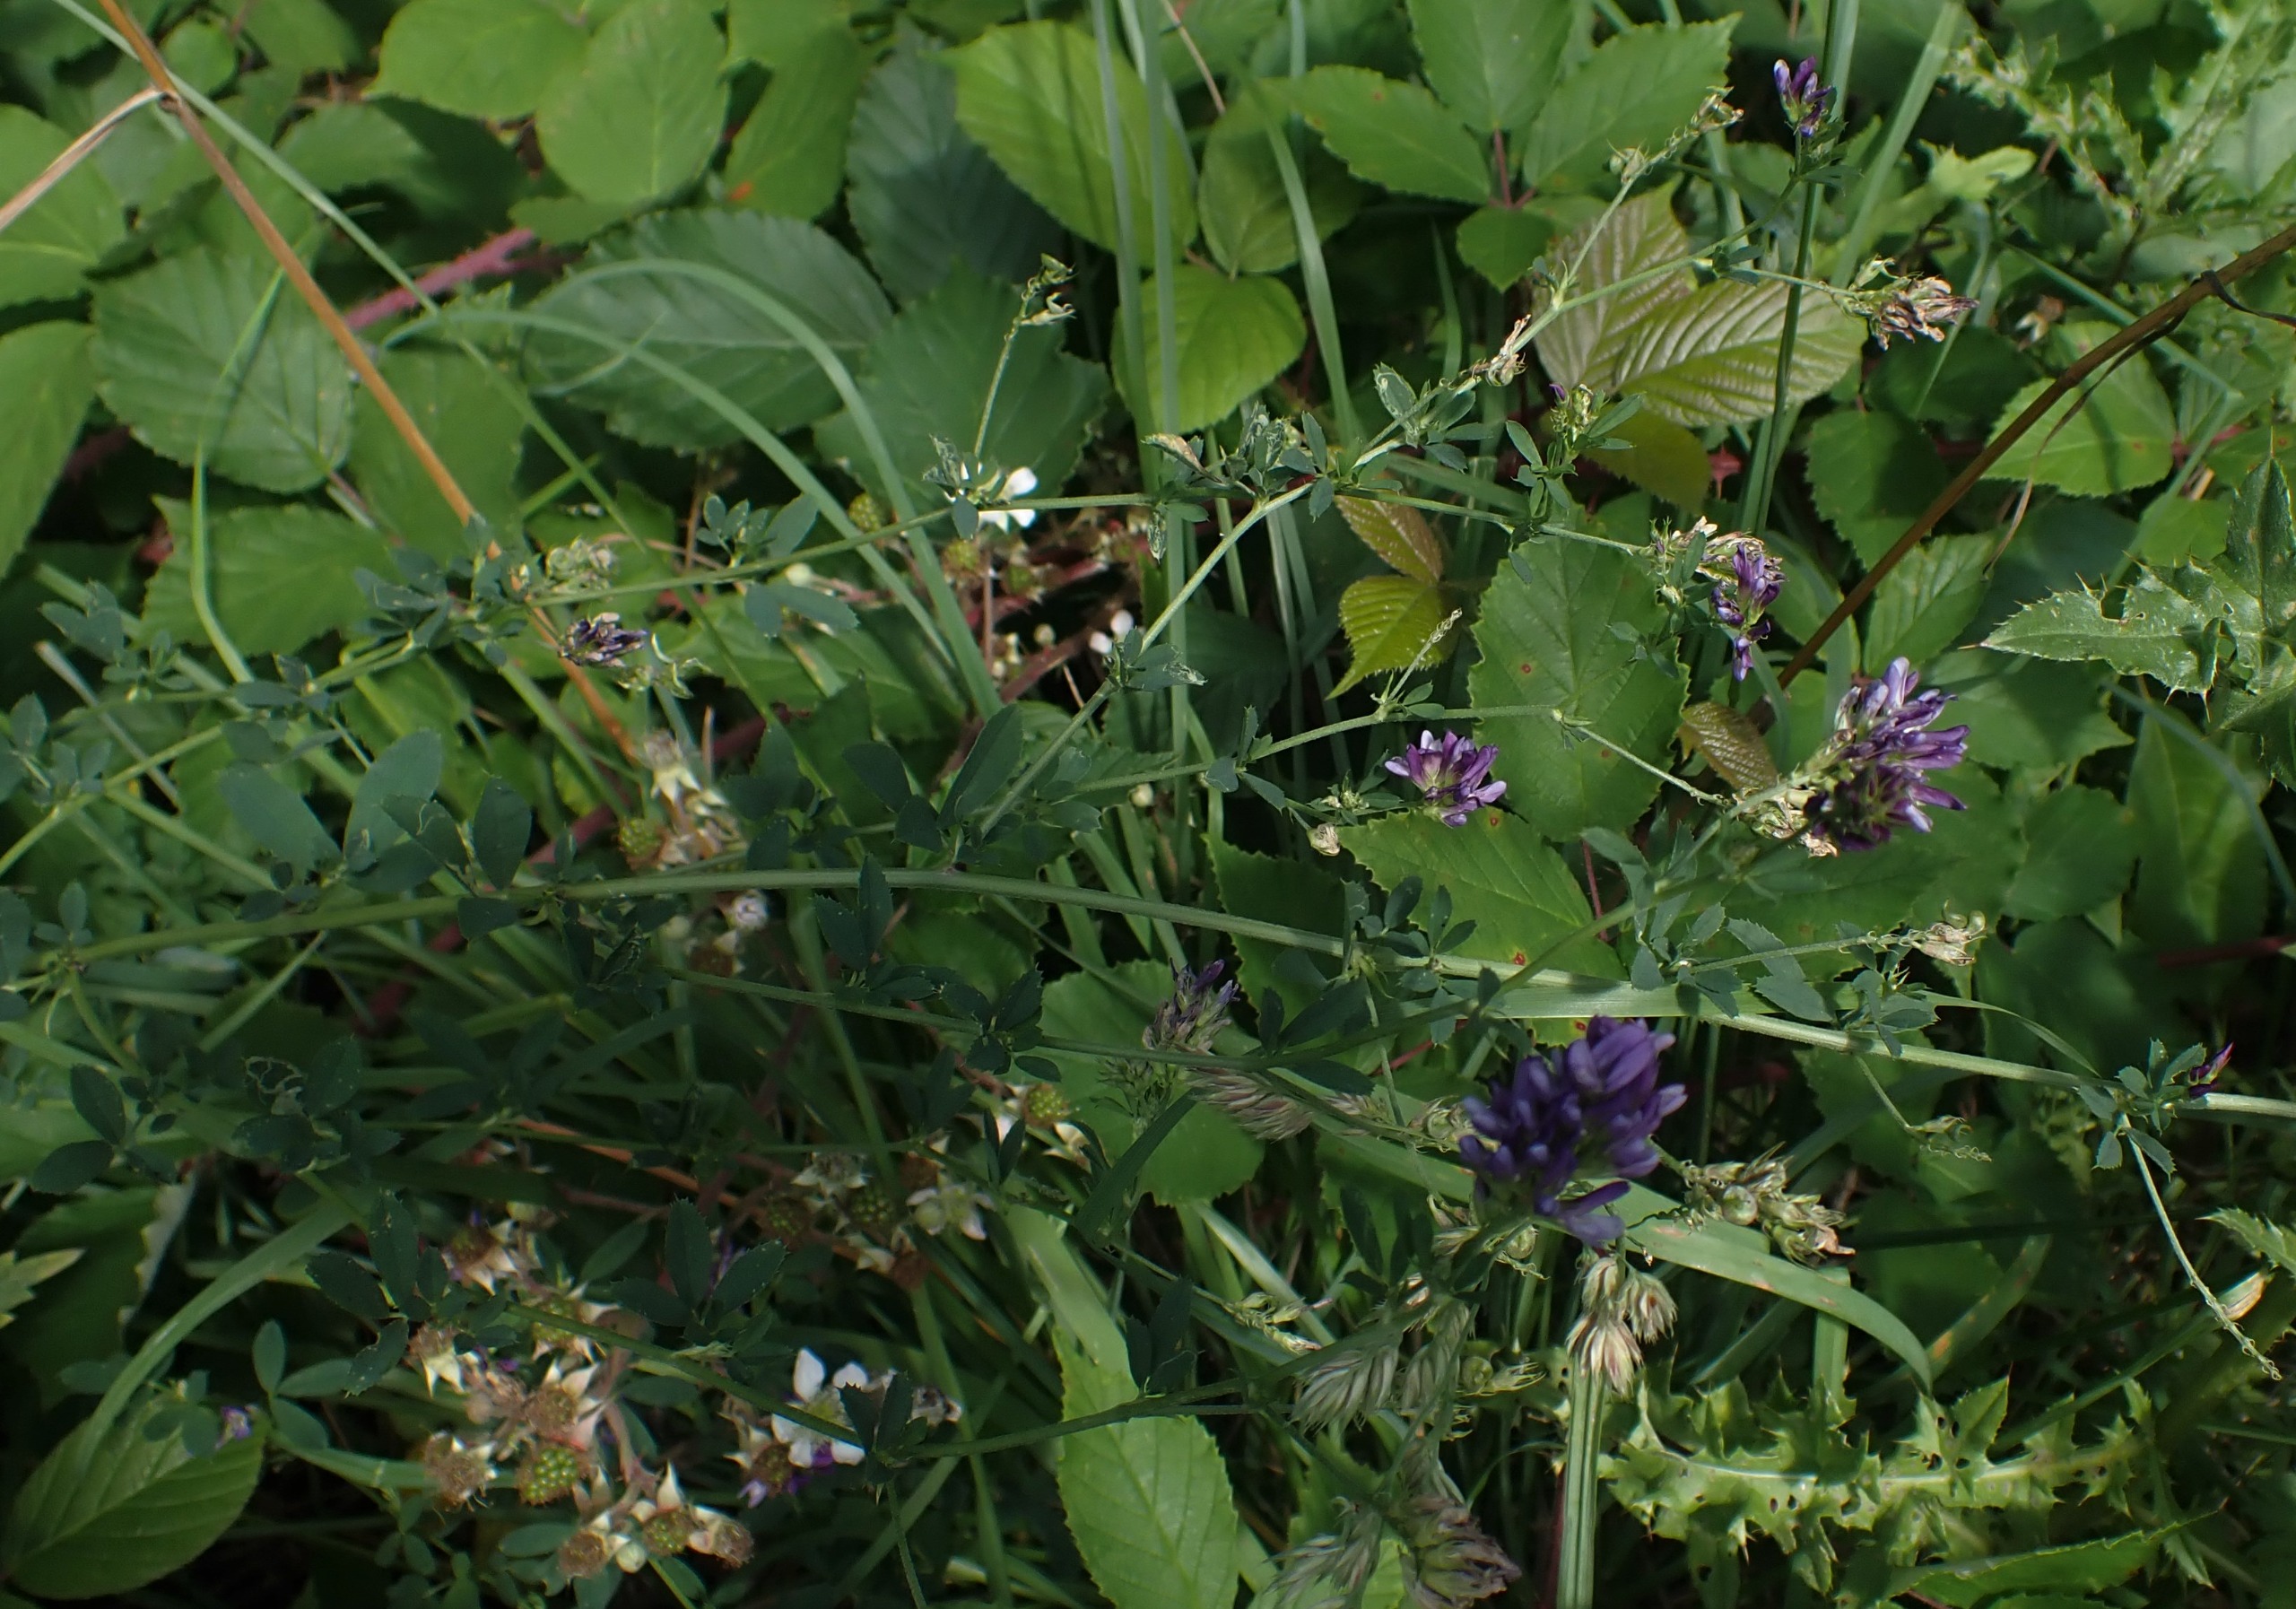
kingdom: Plantae
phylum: Tracheophyta
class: Magnoliopsida
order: Fabales
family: Fabaceae
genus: Medicago
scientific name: Medicago sativa
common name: Lucerne
